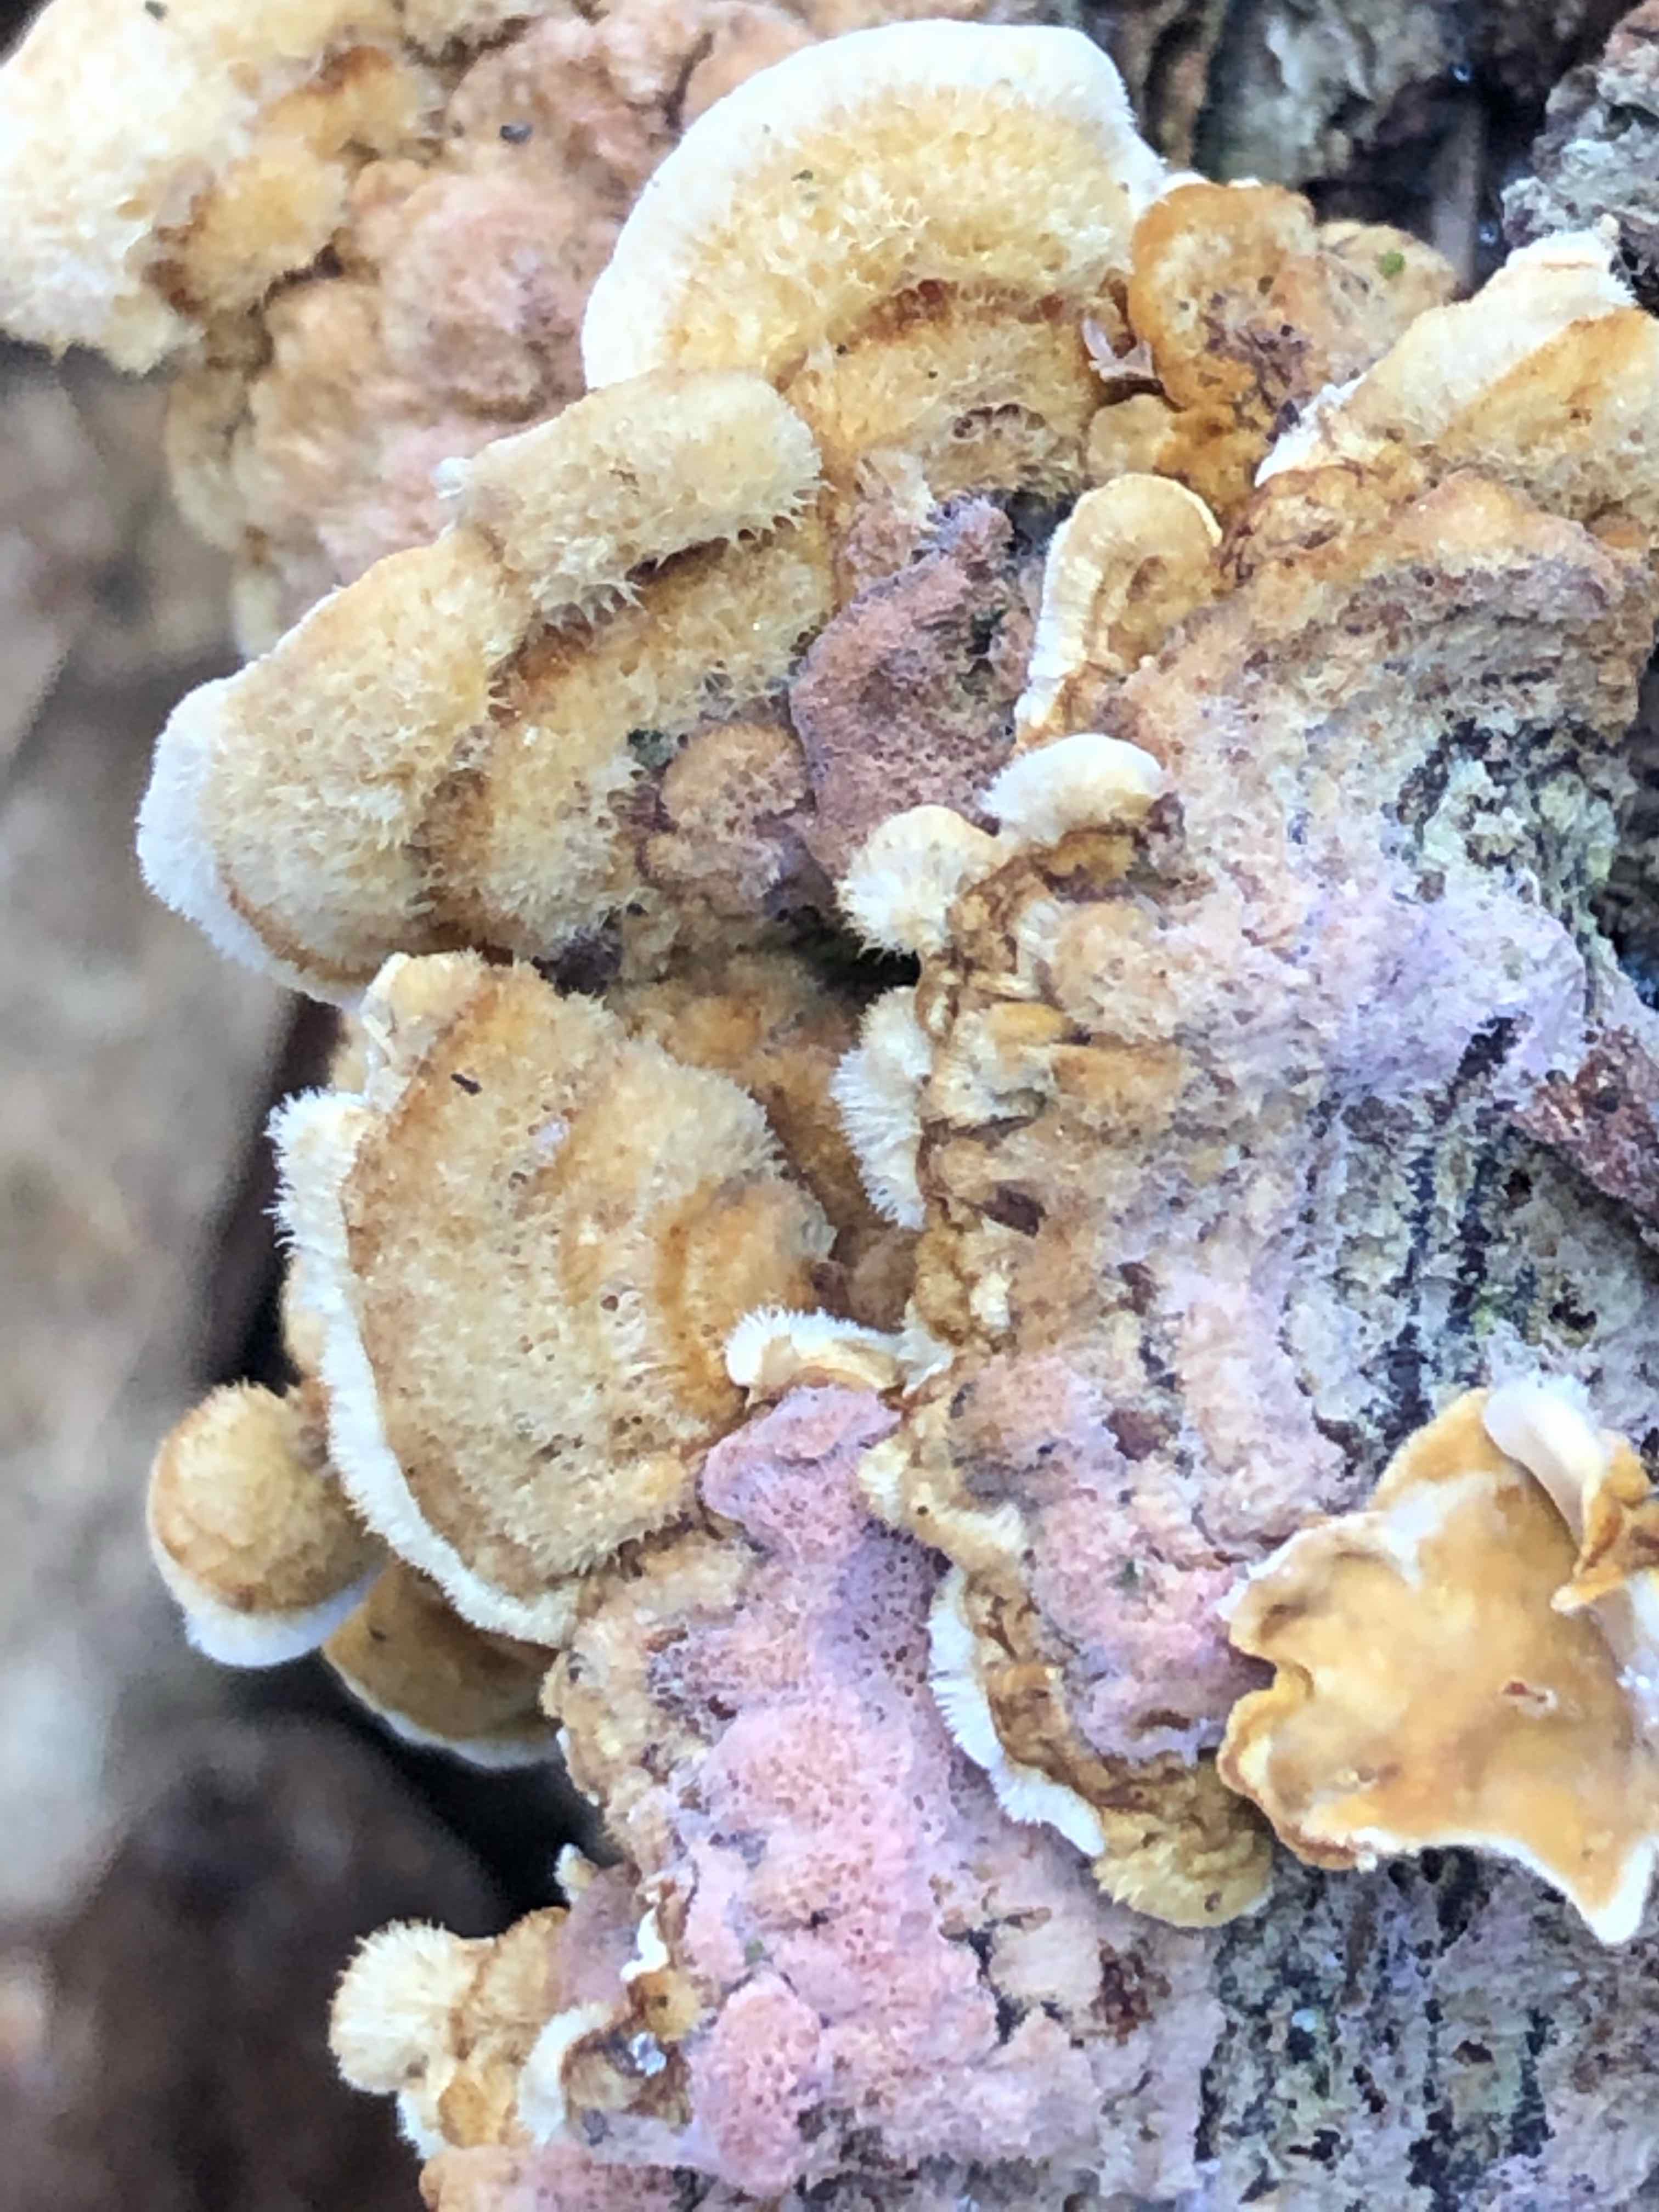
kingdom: Fungi
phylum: Basidiomycota
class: Agaricomycetes
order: Russulales
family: Stereaceae
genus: Stereum
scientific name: Stereum hirsutum
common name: håret lædersvamp
